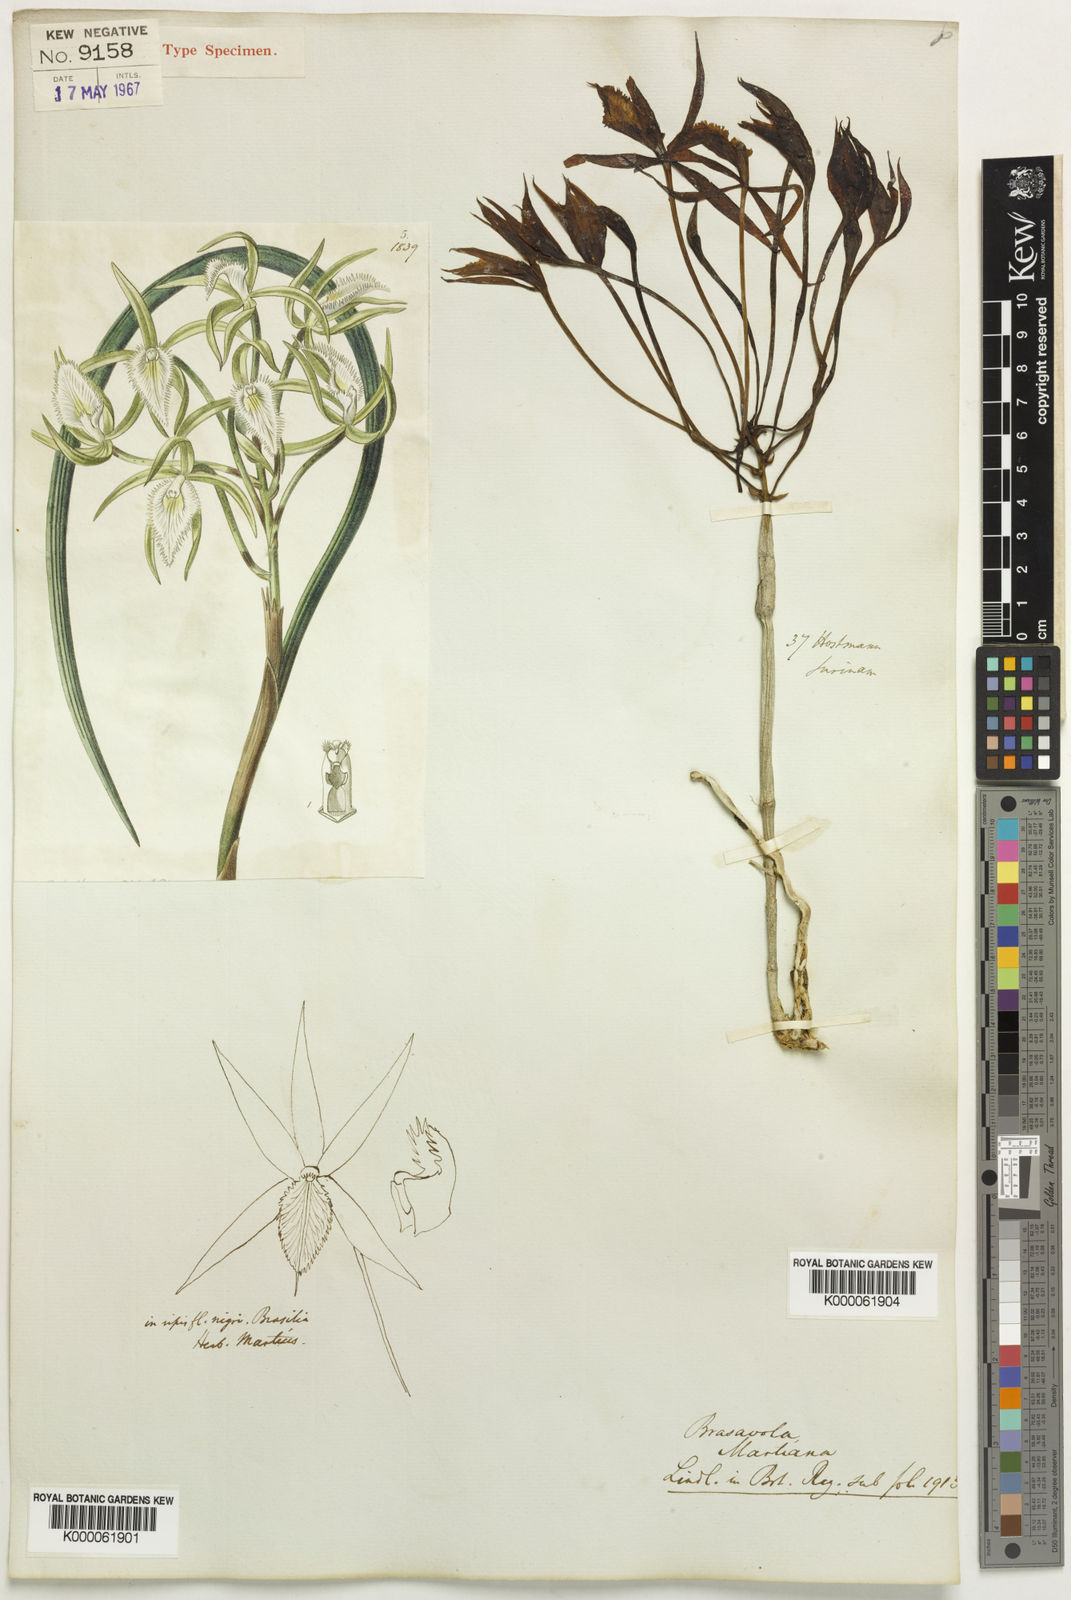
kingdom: Plantae
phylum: Tracheophyta
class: Liliopsida
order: Asparagales
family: Orchidaceae
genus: Brassavola
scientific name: Brassavola martiana
